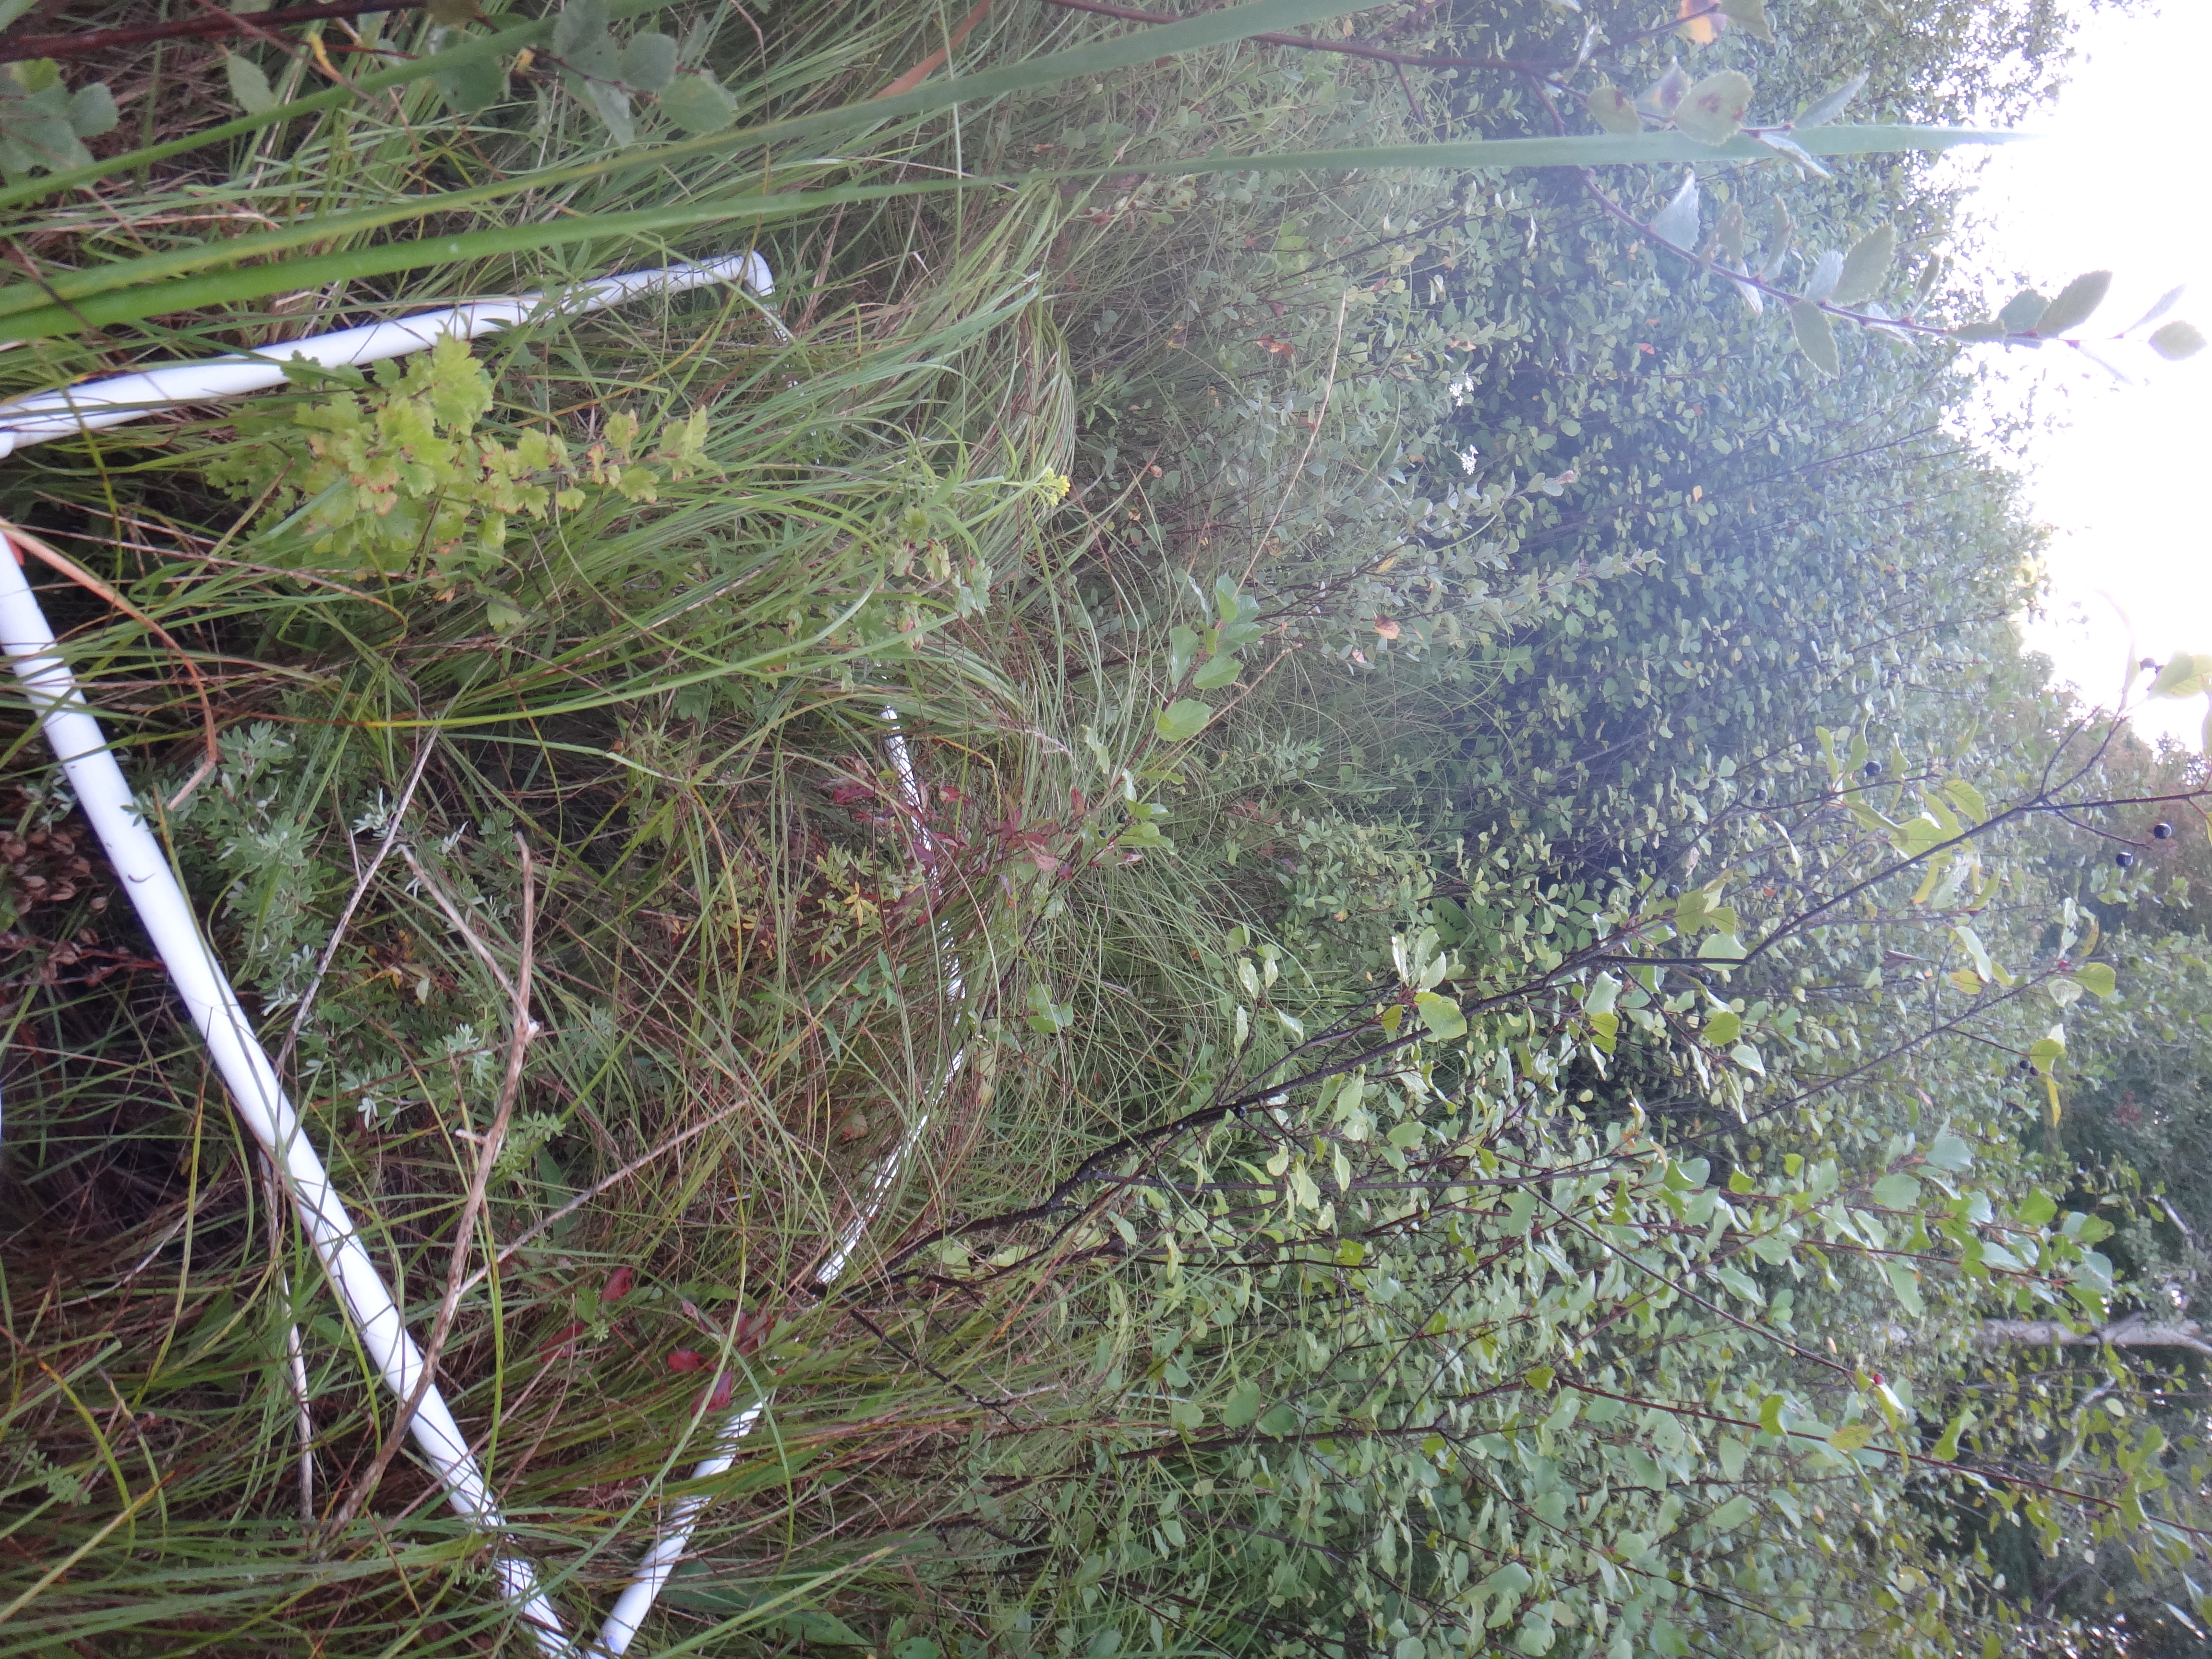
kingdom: Plantae
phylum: Tracheophyta
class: Magnoliopsida
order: Lamiales
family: Lamiaceae
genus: Lycopus
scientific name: Lycopus americanus
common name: American bugleweed
